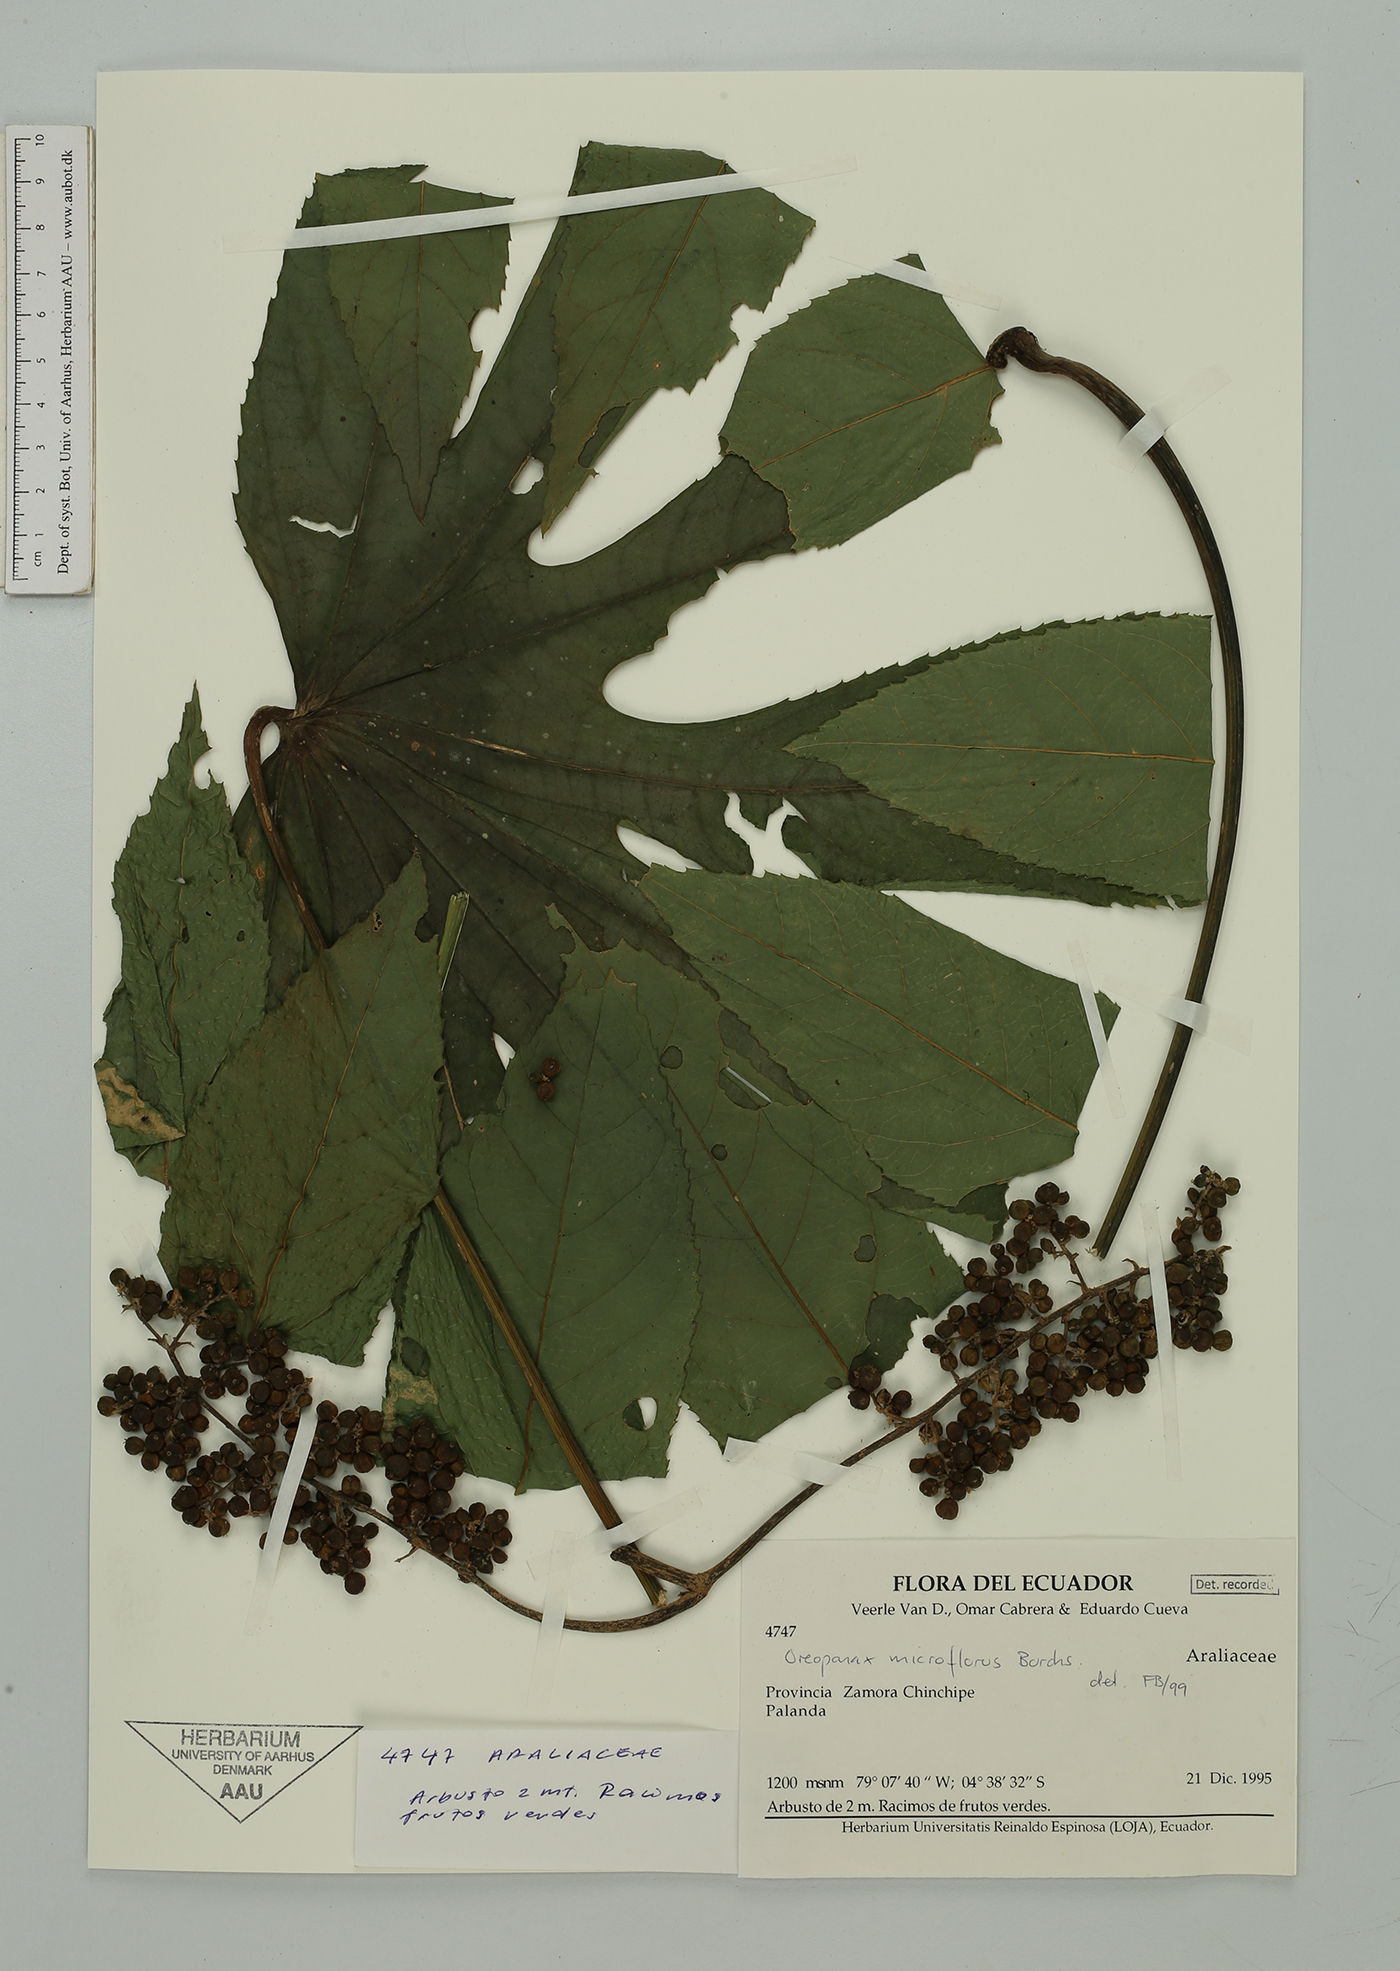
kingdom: Plantae
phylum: Tracheophyta
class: Magnoliopsida
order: Apiales
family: Araliaceae
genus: Oreopanax
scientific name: Oreopanax microflorus
